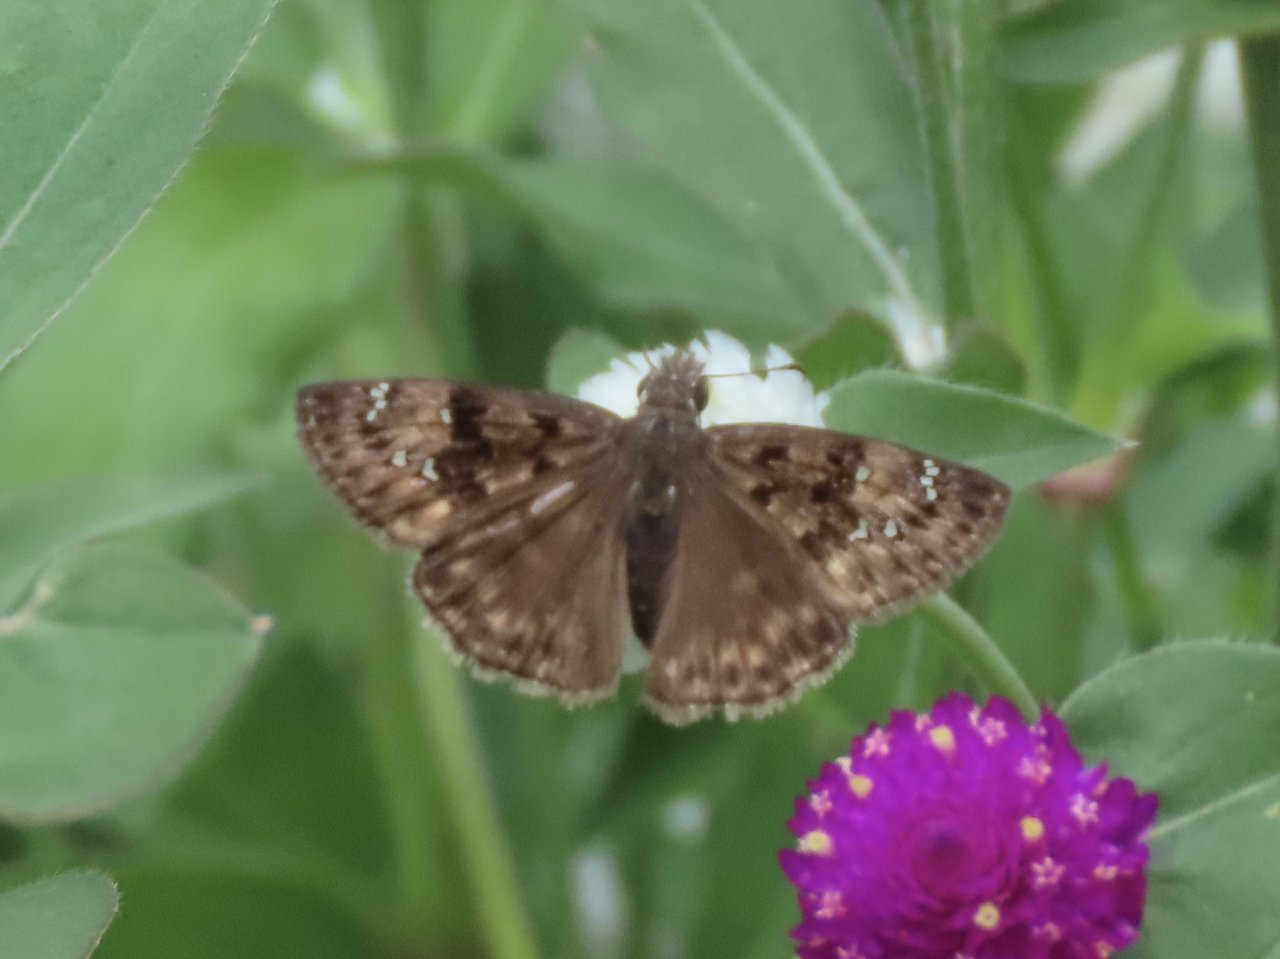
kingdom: Animalia
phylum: Arthropoda
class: Insecta
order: Lepidoptera
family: Hesperiidae
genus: Gesta
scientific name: Gesta
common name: Horace's Duskywing
